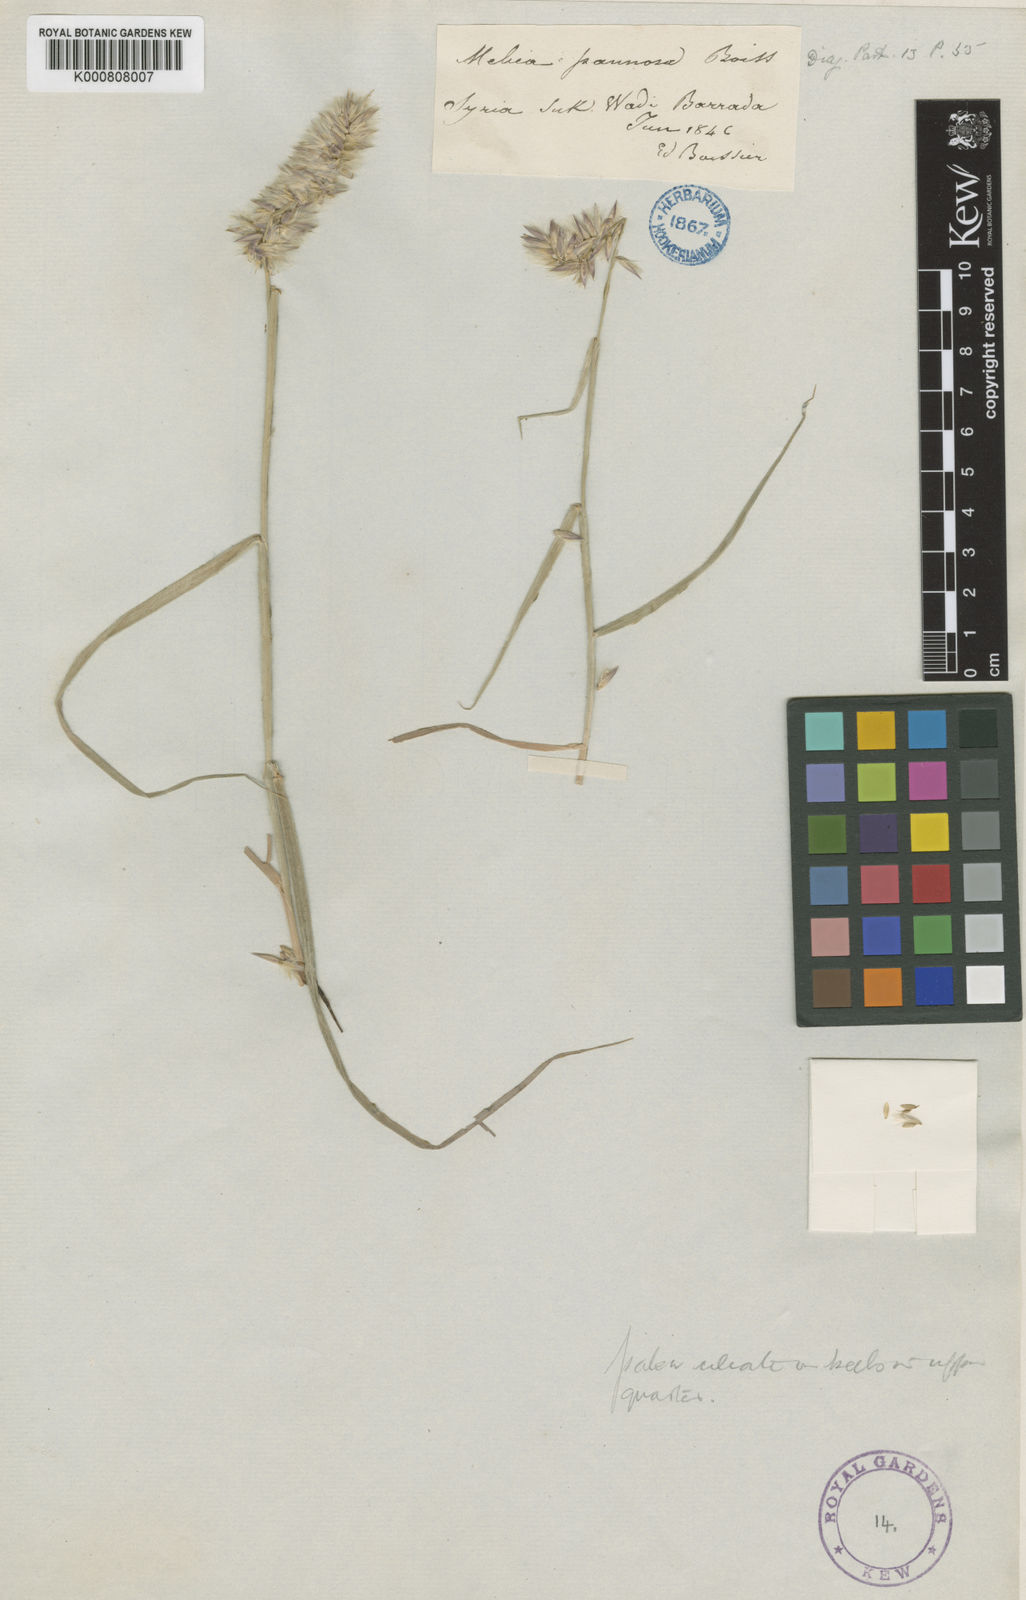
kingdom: Plantae
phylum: Tracheophyta
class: Liliopsida
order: Poales
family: Poaceae
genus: Melica
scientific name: Melica persica
